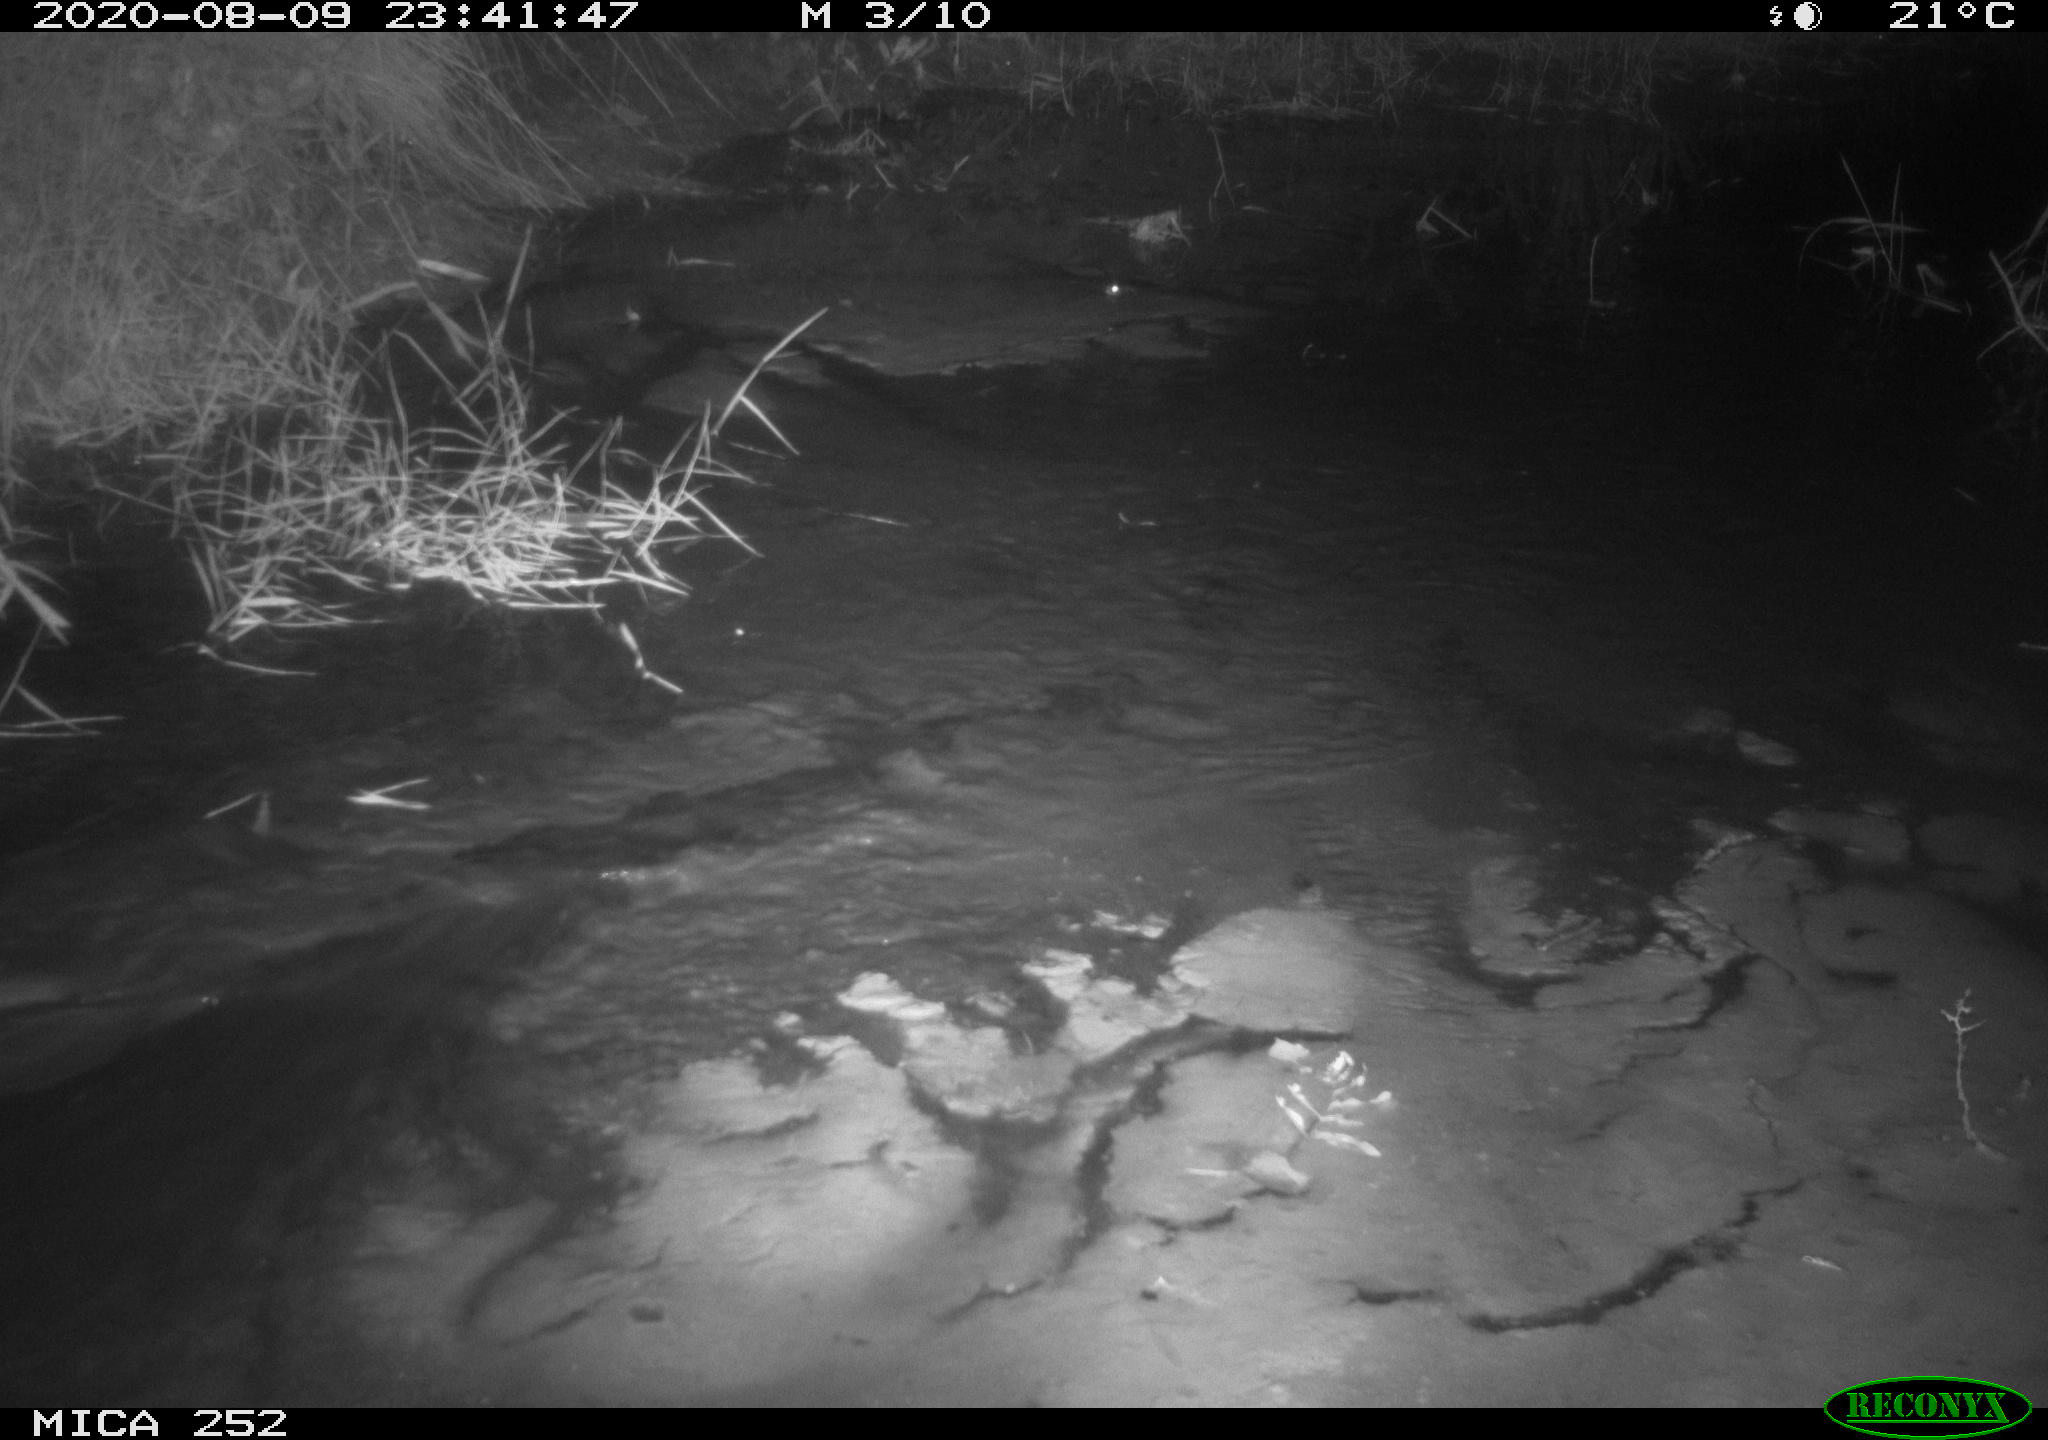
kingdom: Animalia
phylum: Chordata
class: Mammalia
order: Rodentia
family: Castoridae
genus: Castor
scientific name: Castor fiber
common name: Eurasian beaver
